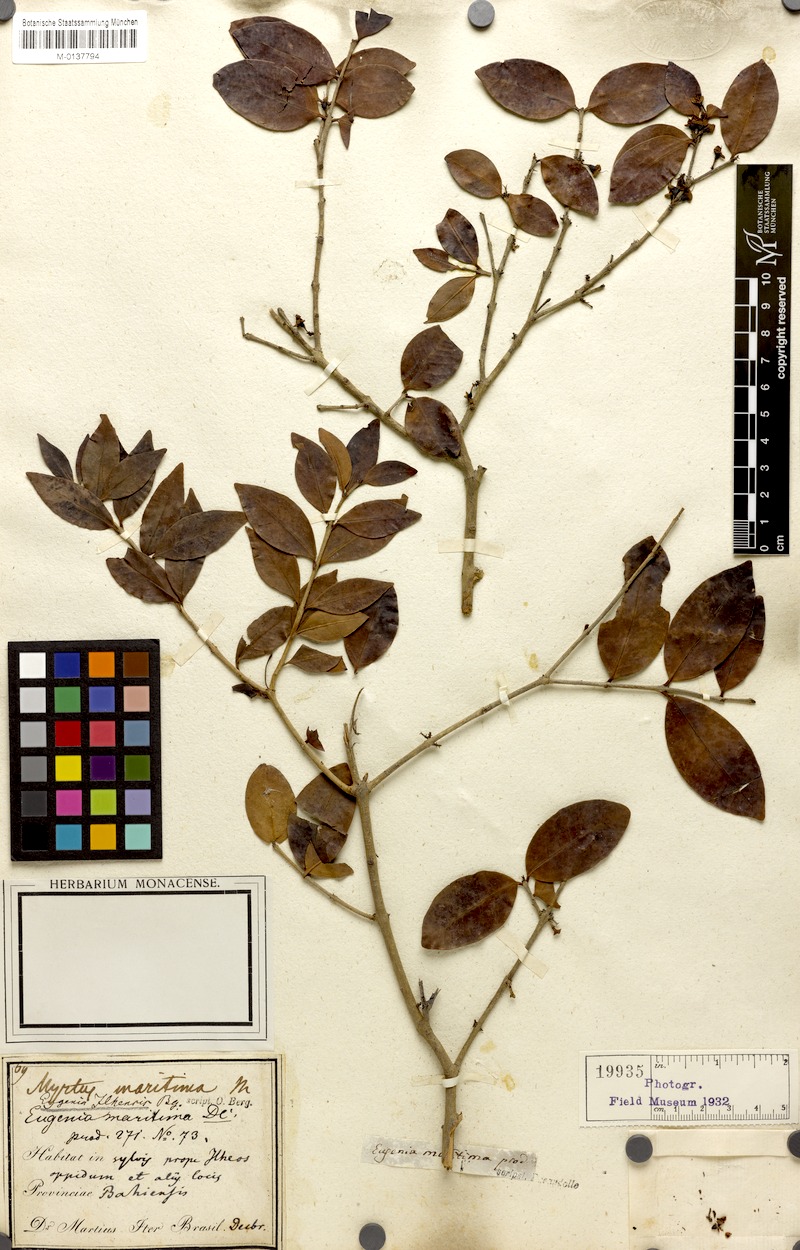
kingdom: Plantae
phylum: Tracheophyta
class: Magnoliopsida
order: Myrtales
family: Myrtaceae
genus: Eugenia
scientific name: Eugenia maritima
